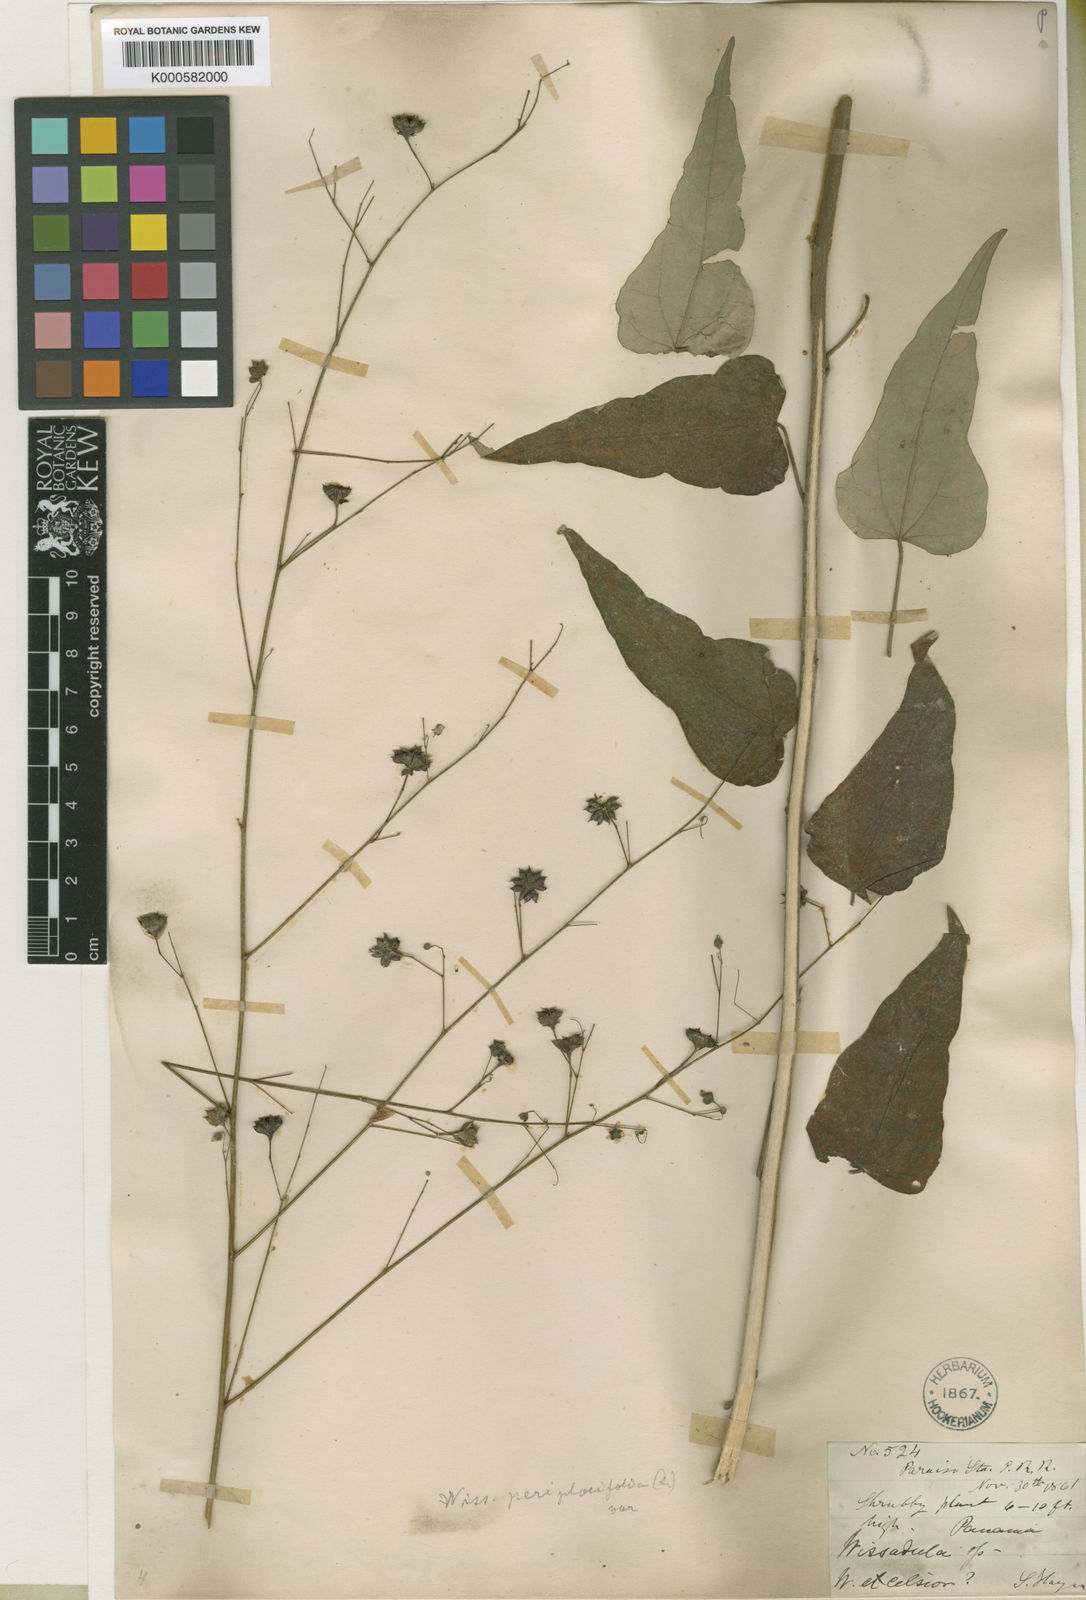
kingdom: Plantae
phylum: Tracheophyta
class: Magnoliopsida
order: Malvales
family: Malvaceae
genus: Wissadula
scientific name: Wissadula periplocifolia
